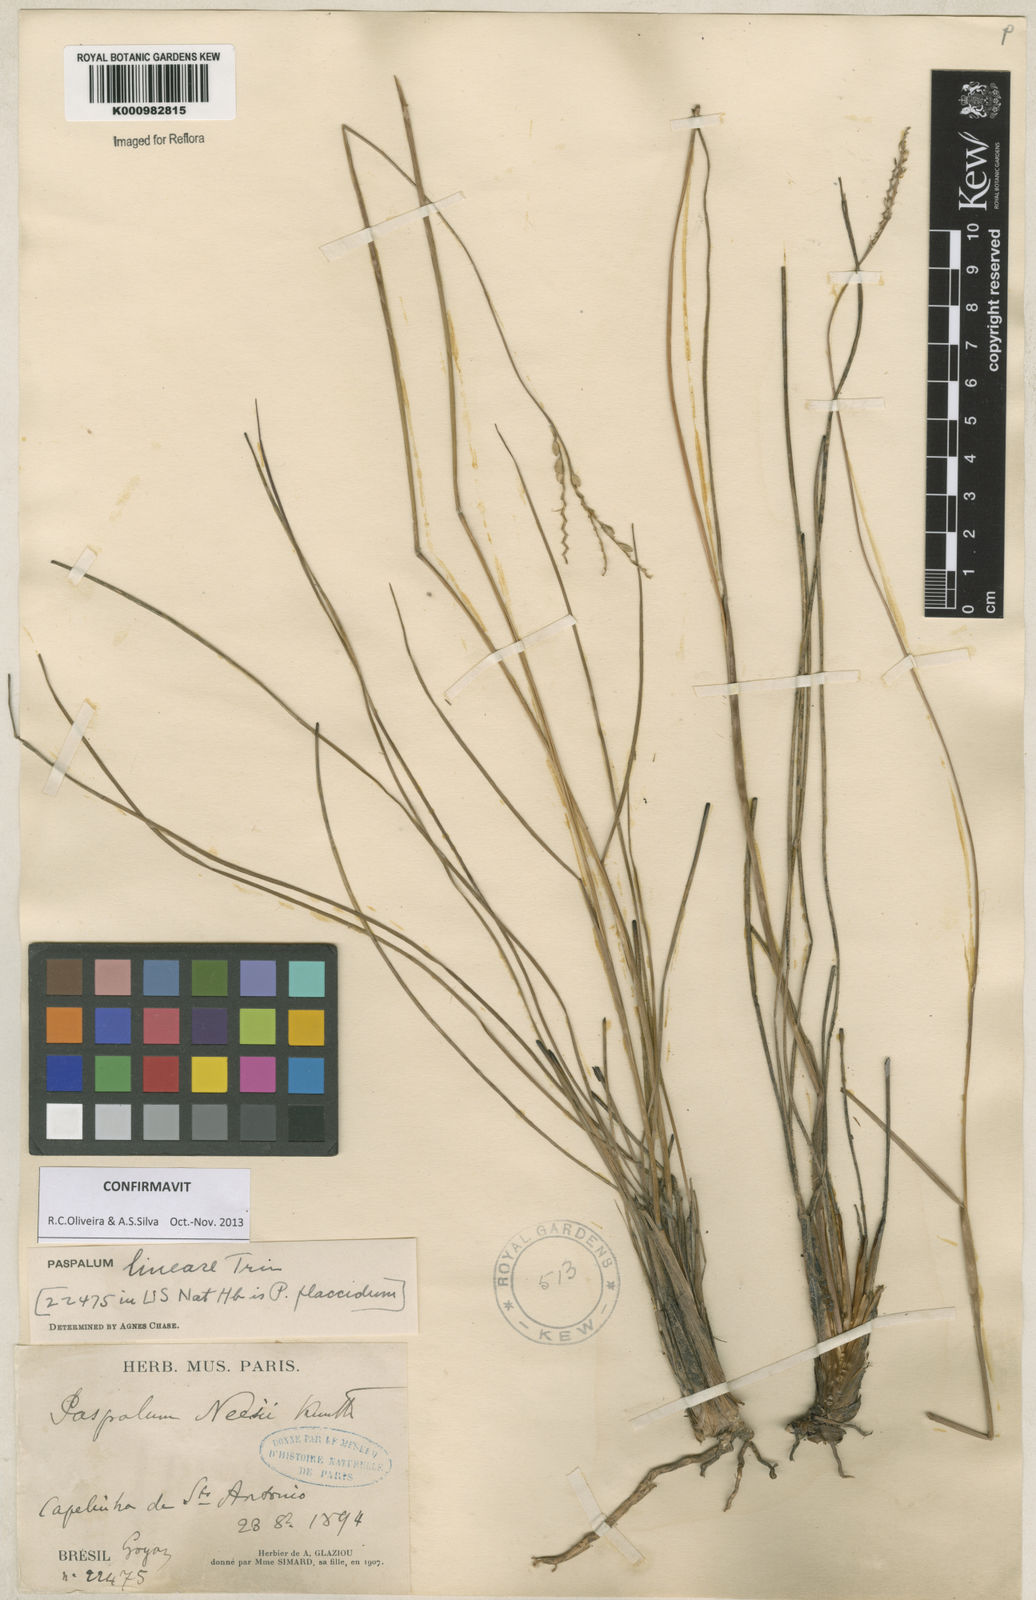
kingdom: Plantae
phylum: Tracheophyta
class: Liliopsida
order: Poales
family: Poaceae
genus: Paspalum
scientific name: Paspalum lineare
